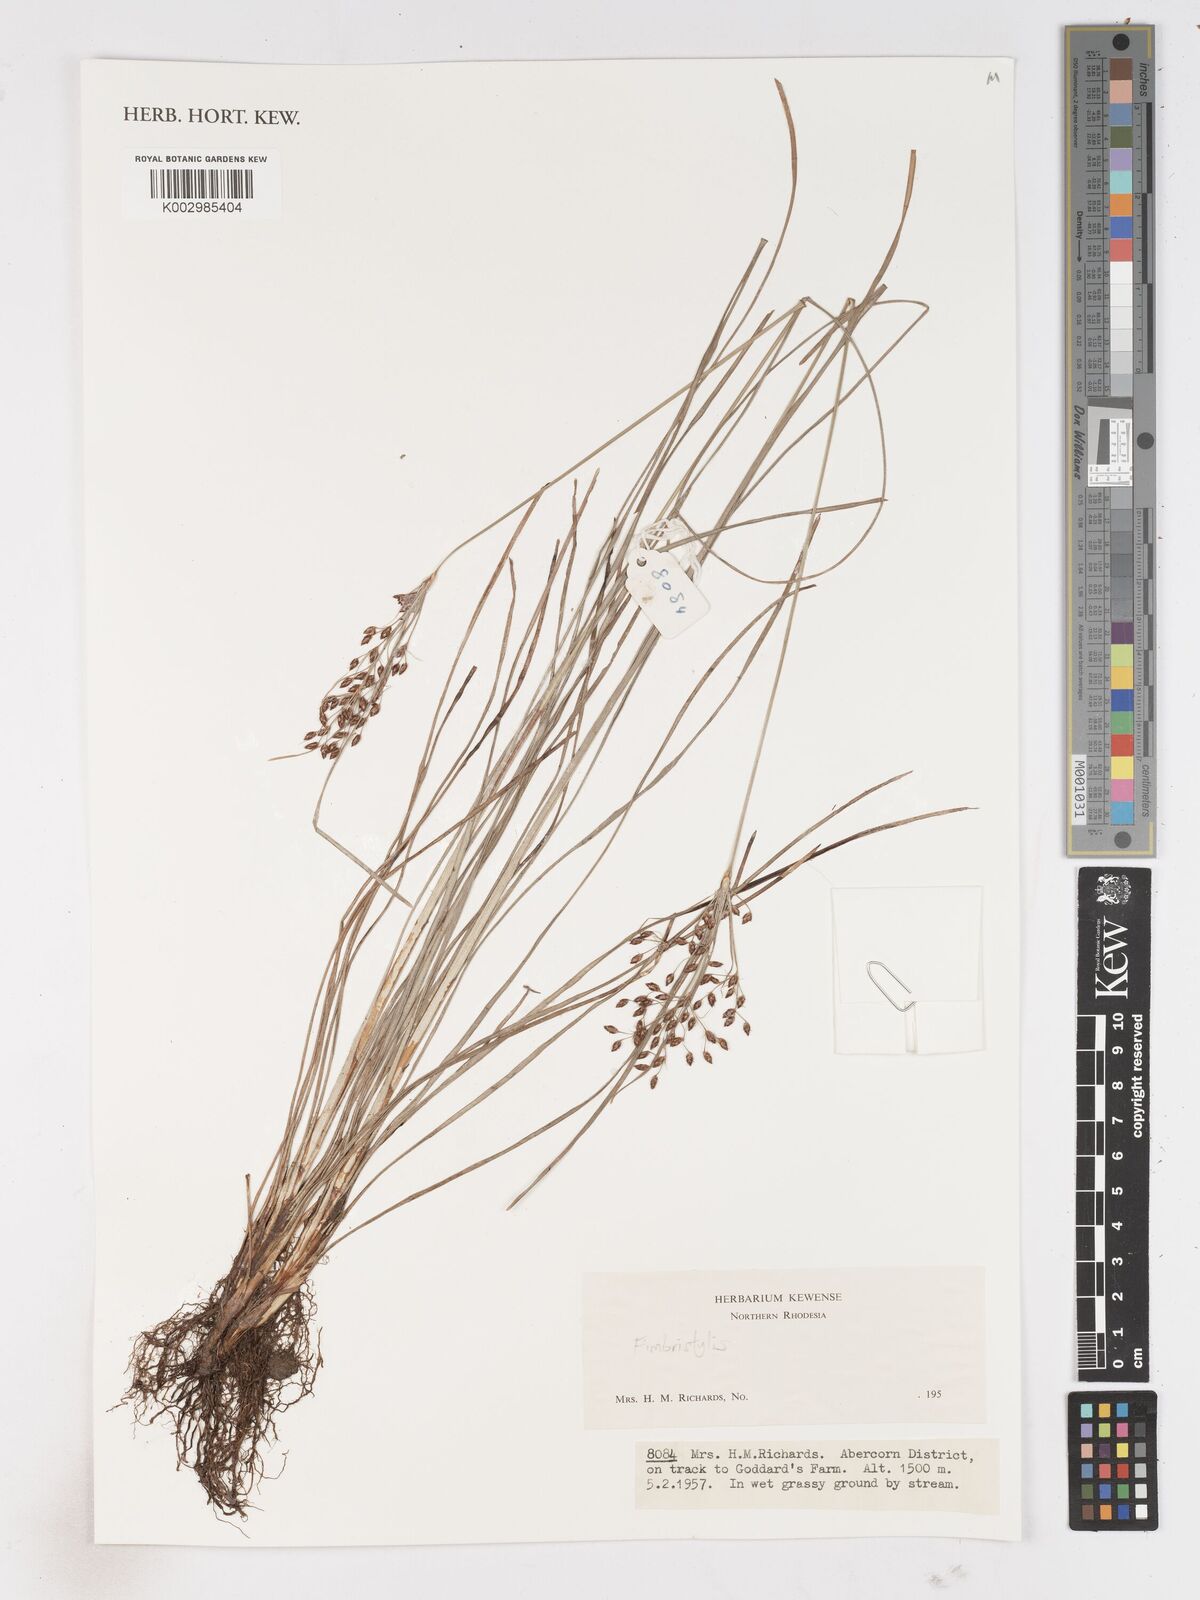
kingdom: Plantae
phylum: Tracheophyta
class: Liliopsida
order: Poales
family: Cyperaceae
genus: Fimbristylis
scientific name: Fimbristylis
